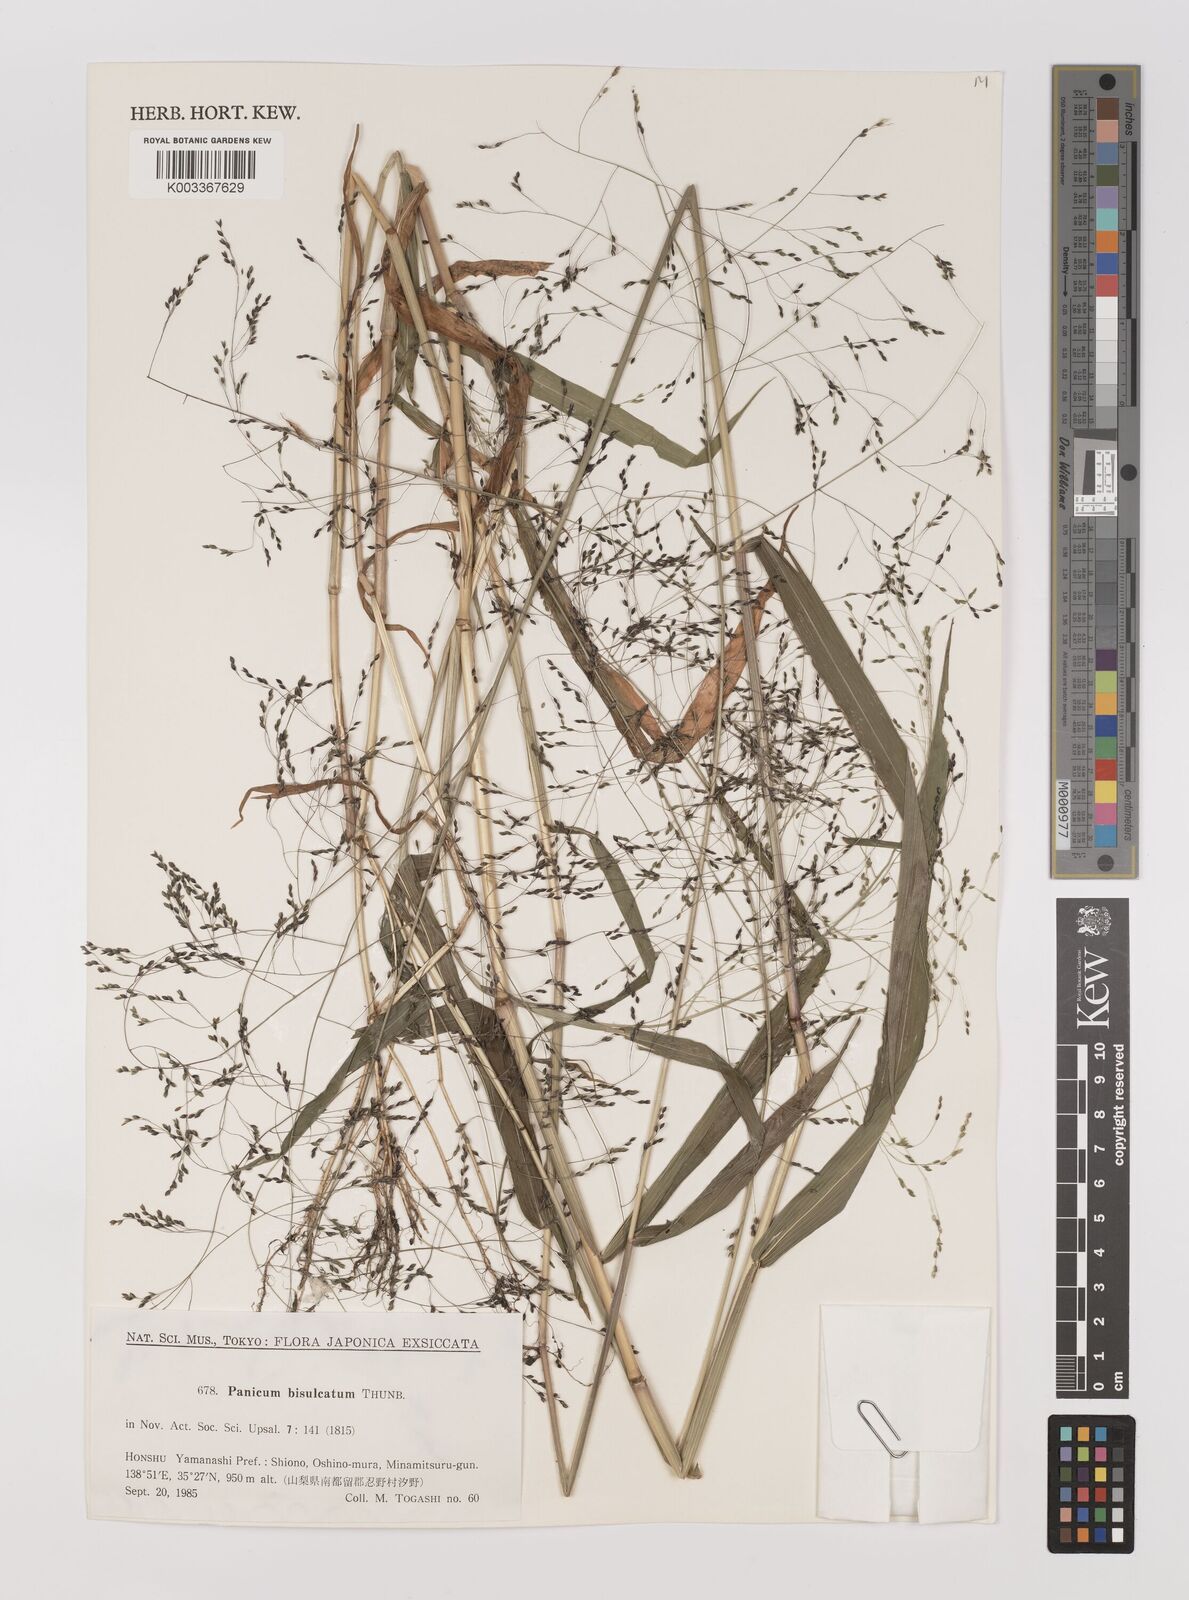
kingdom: Plantae
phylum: Tracheophyta
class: Liliopsida
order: Poales
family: Poaceae
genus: Panicum
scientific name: Panicum bisulcatum
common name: Japanese panicgrass
